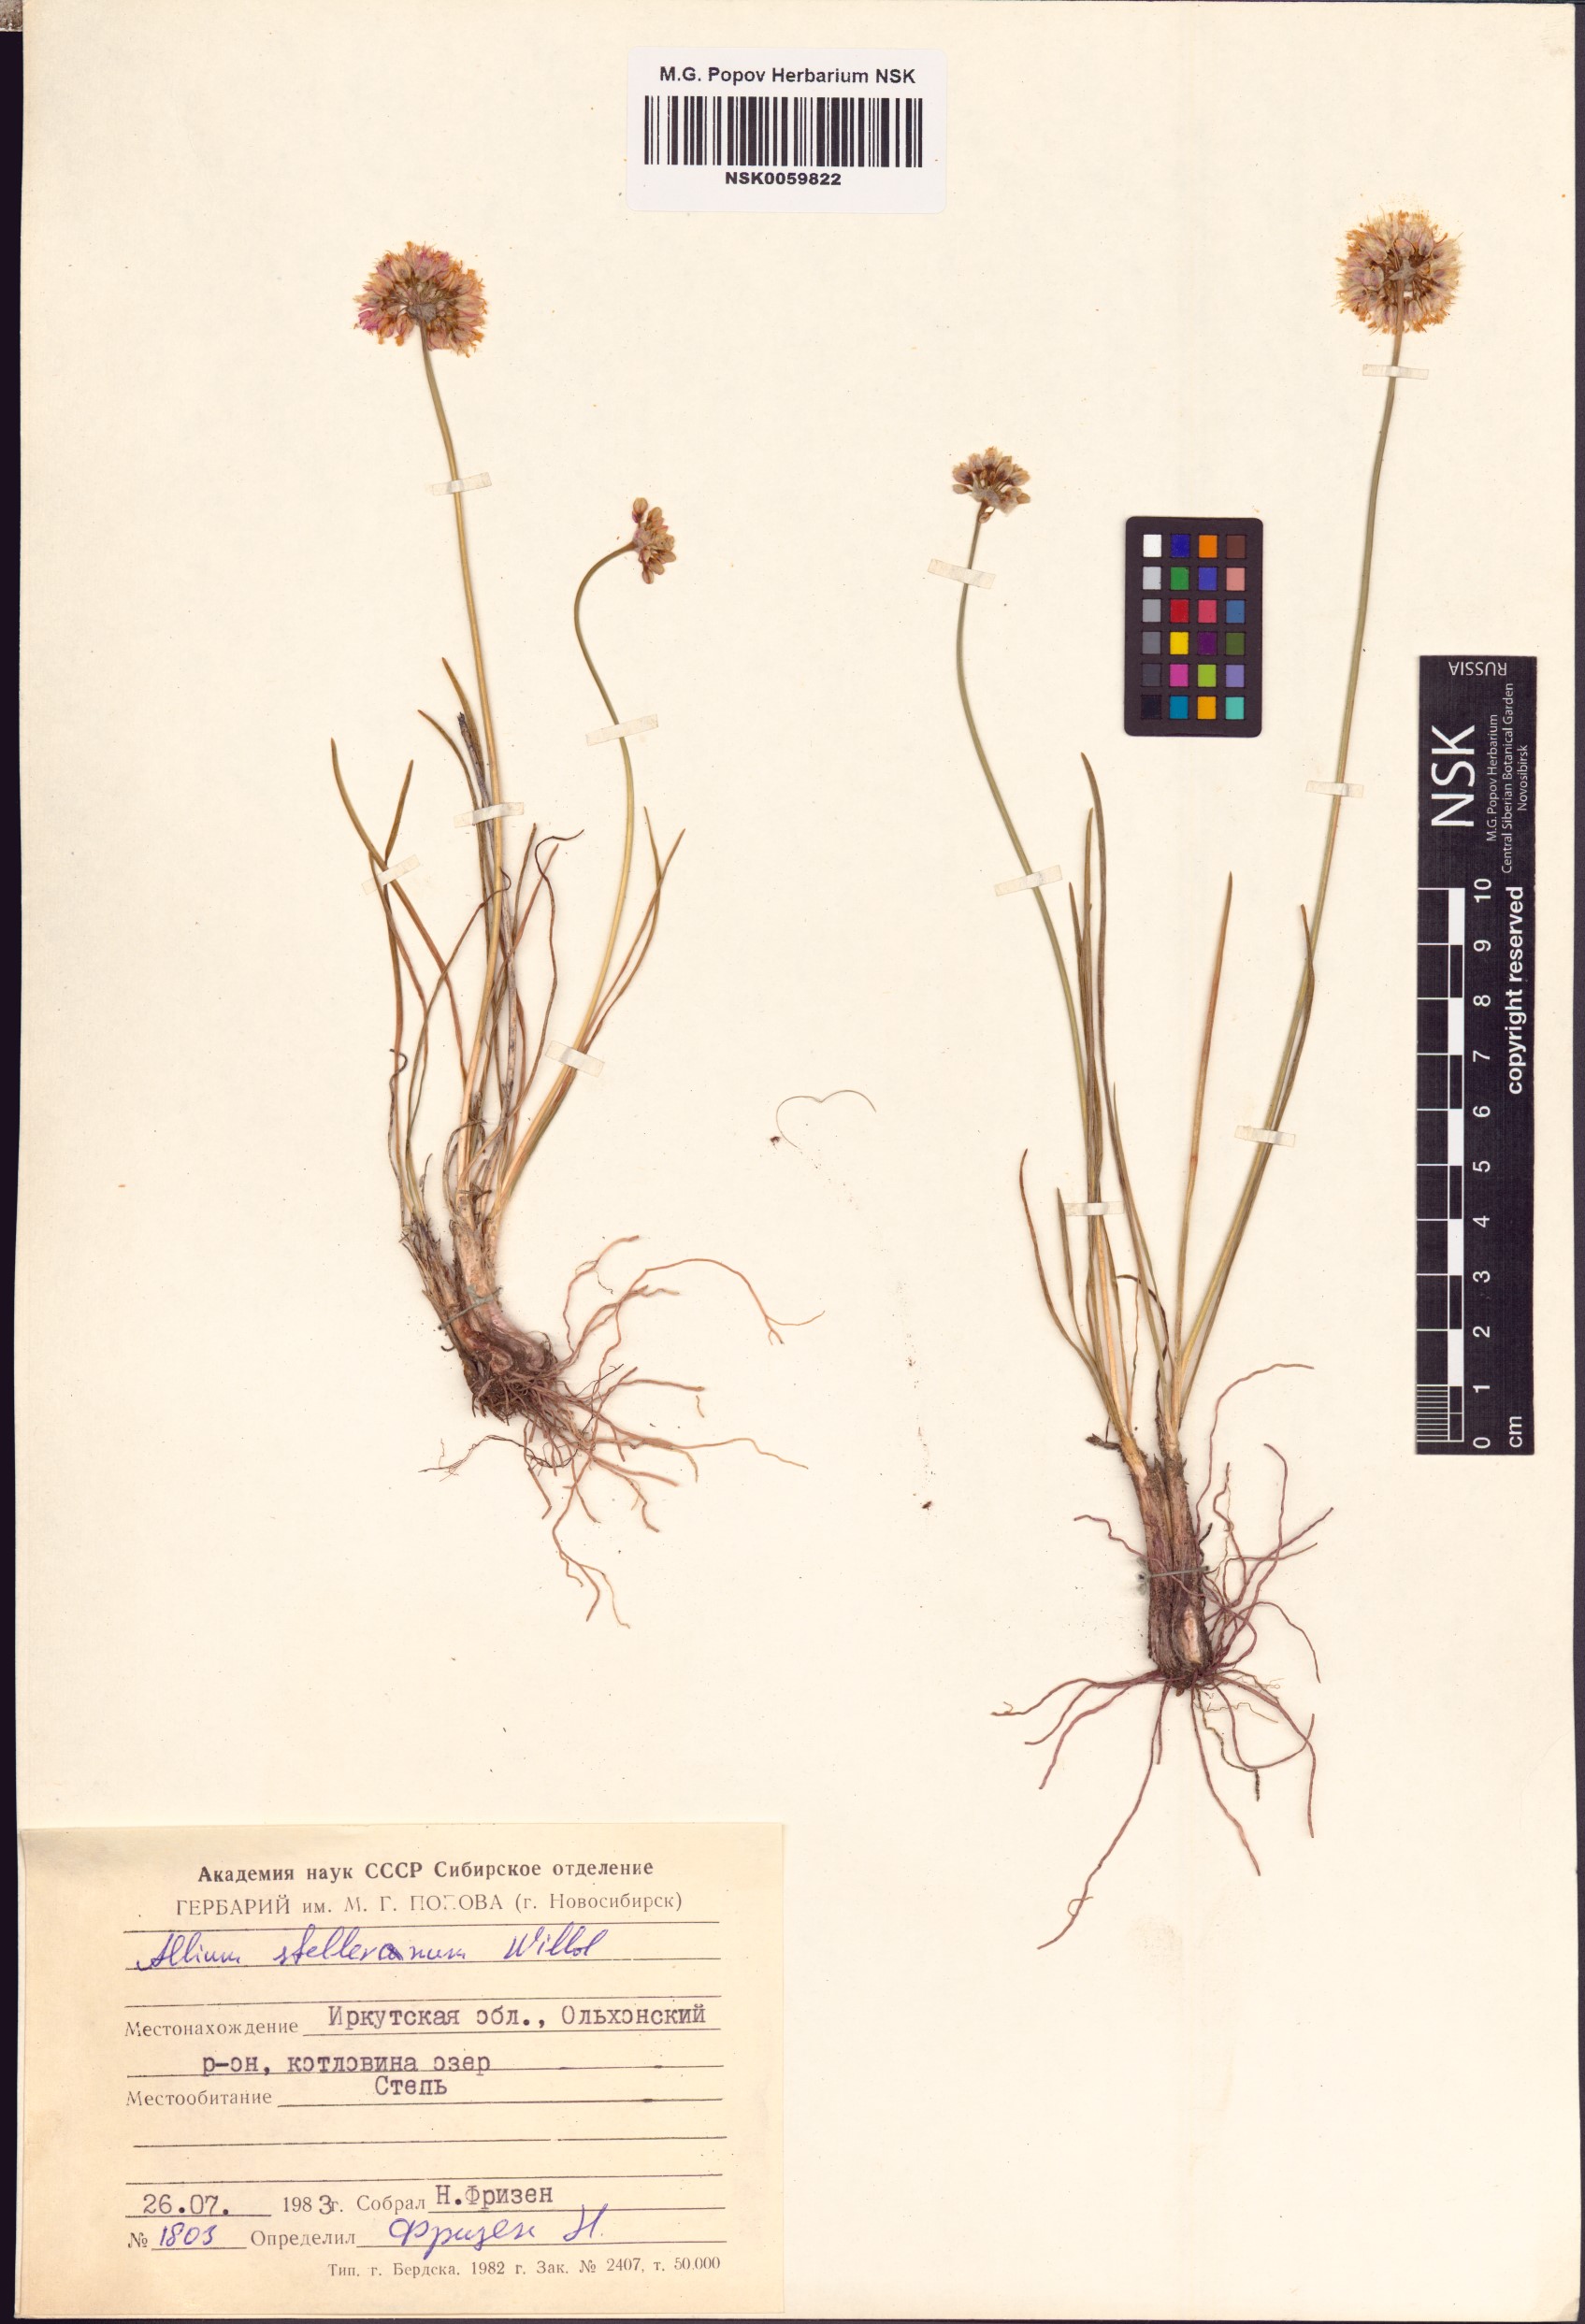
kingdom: Plantae
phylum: Tracheophyta
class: Liliopsida
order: Asparagales
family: Amaryllidaceae
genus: Allium
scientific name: Allium stellerianum
